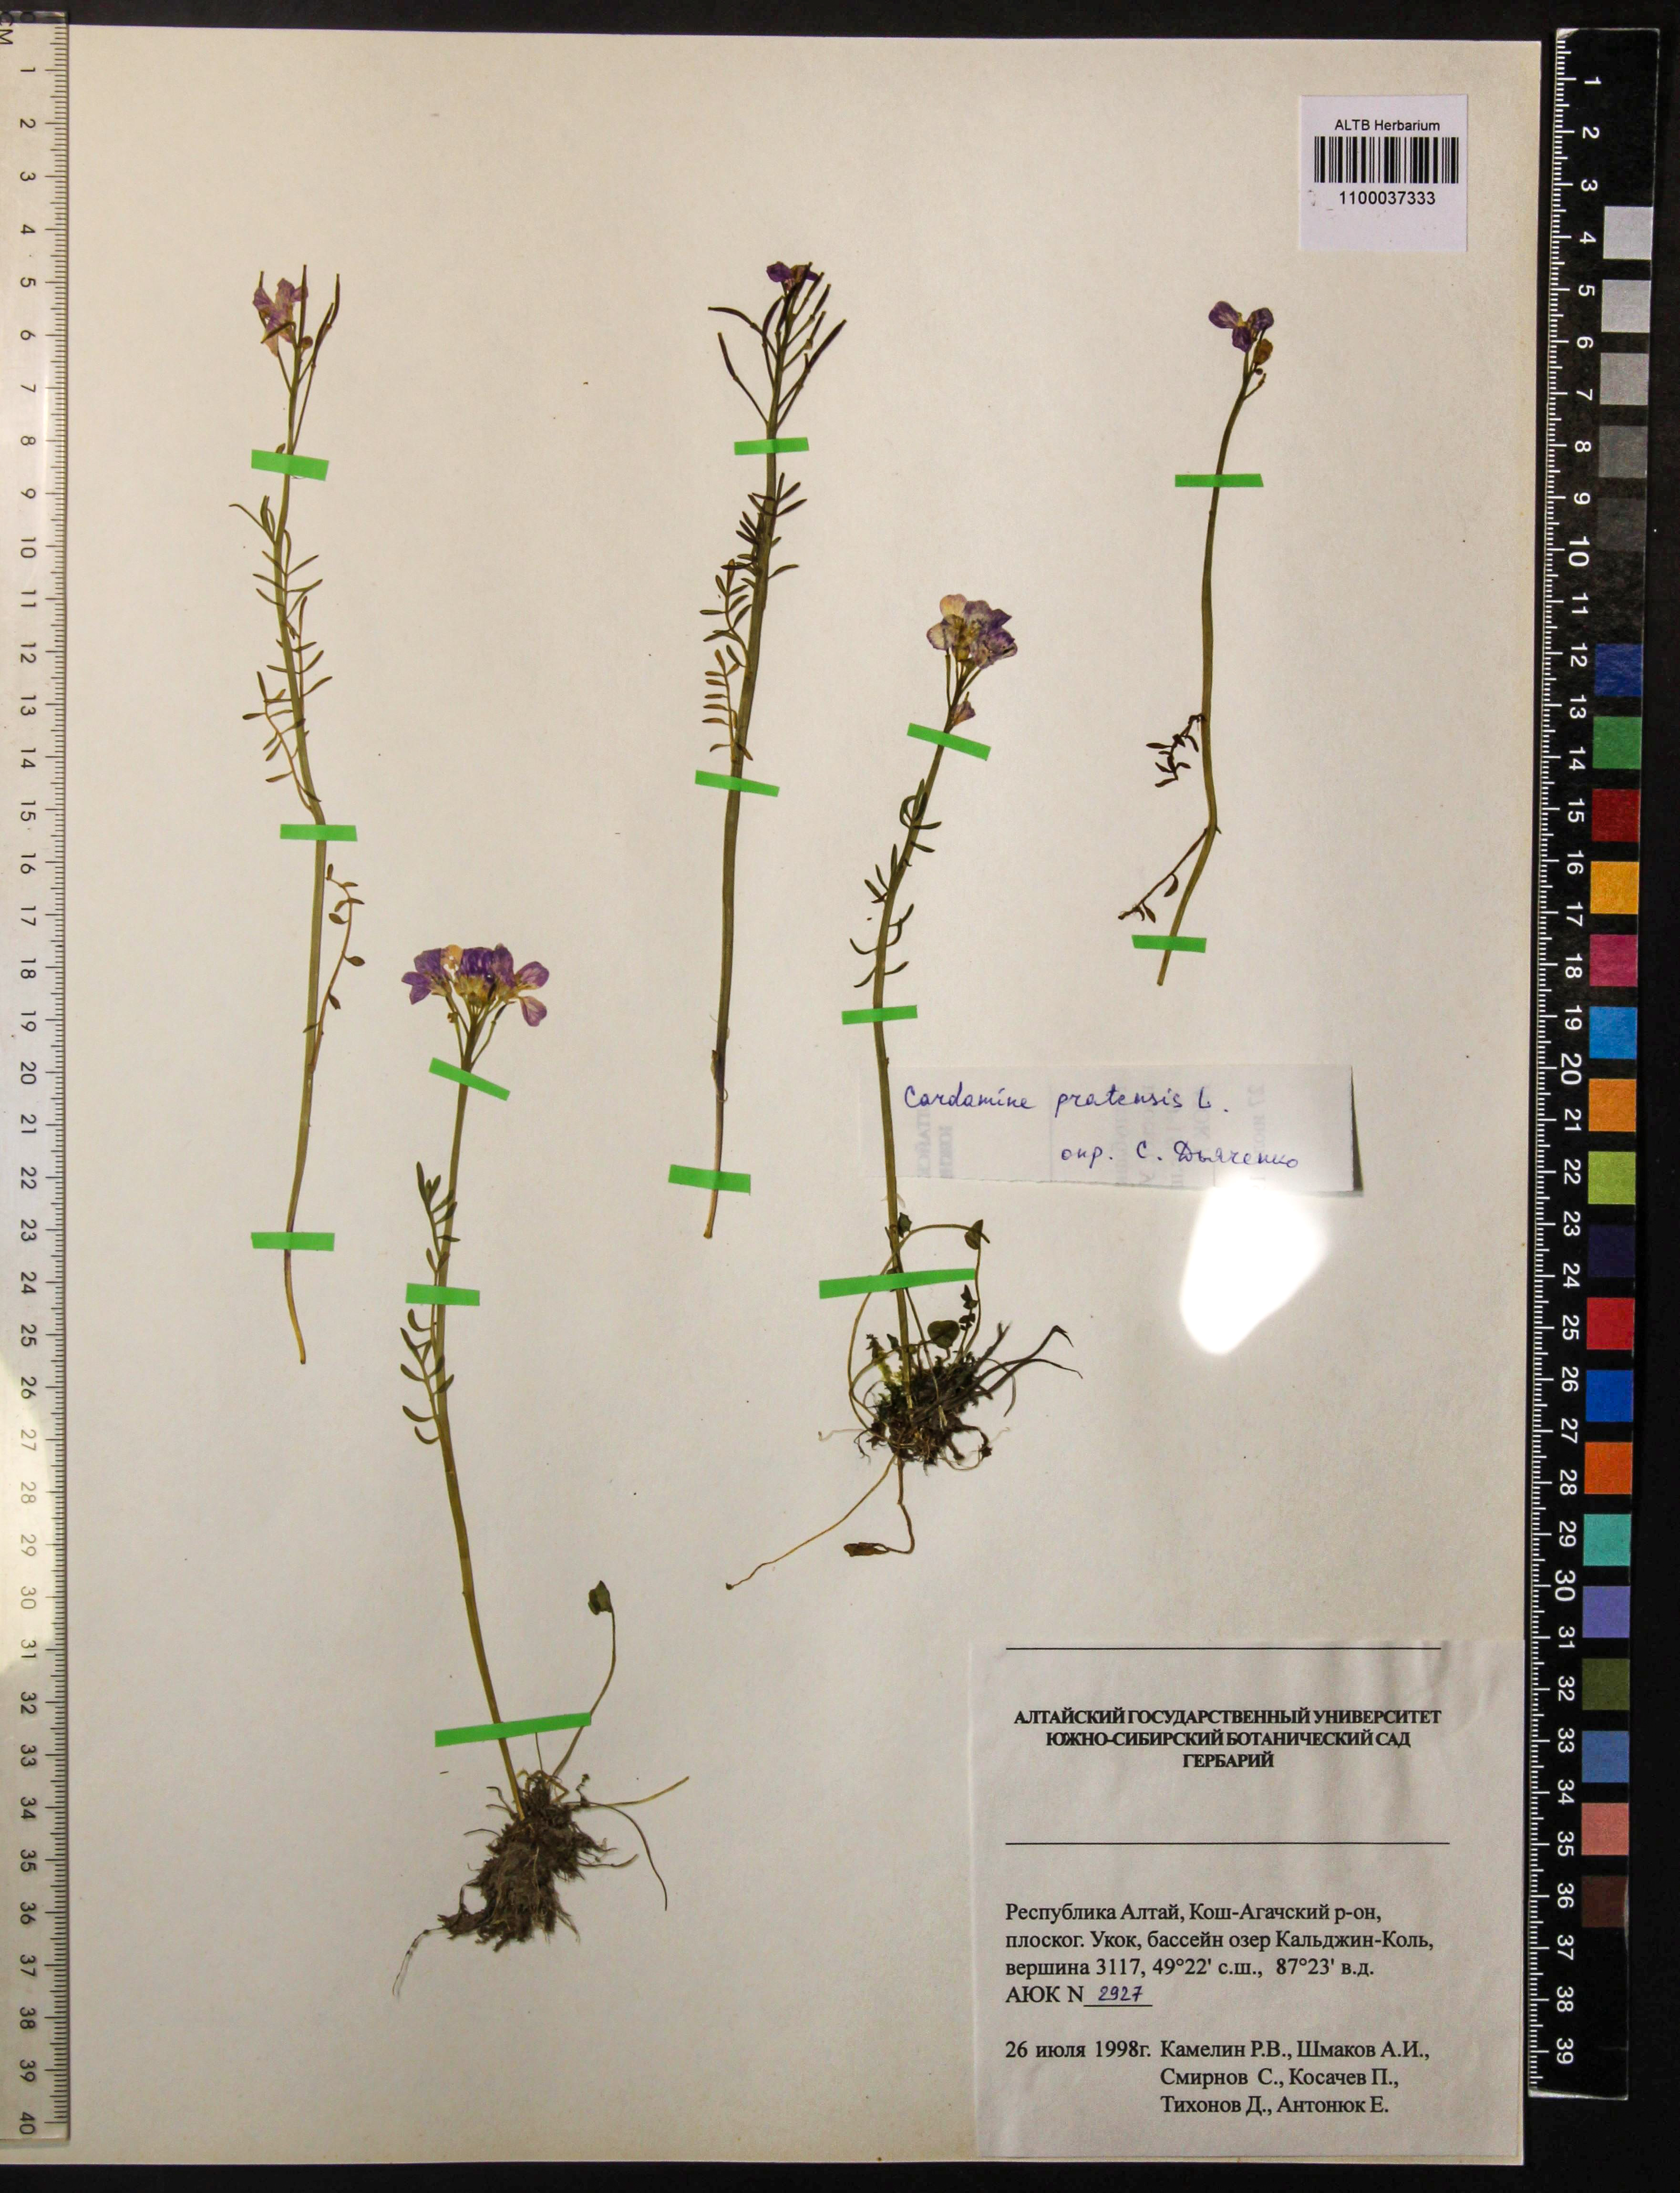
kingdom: Plantae
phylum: Tracheophyta
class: Magnoliopsida
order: Brassicales
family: Brassicaceae
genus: Cardamine
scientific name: Cardamine pratensis
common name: Cuckoo flower
